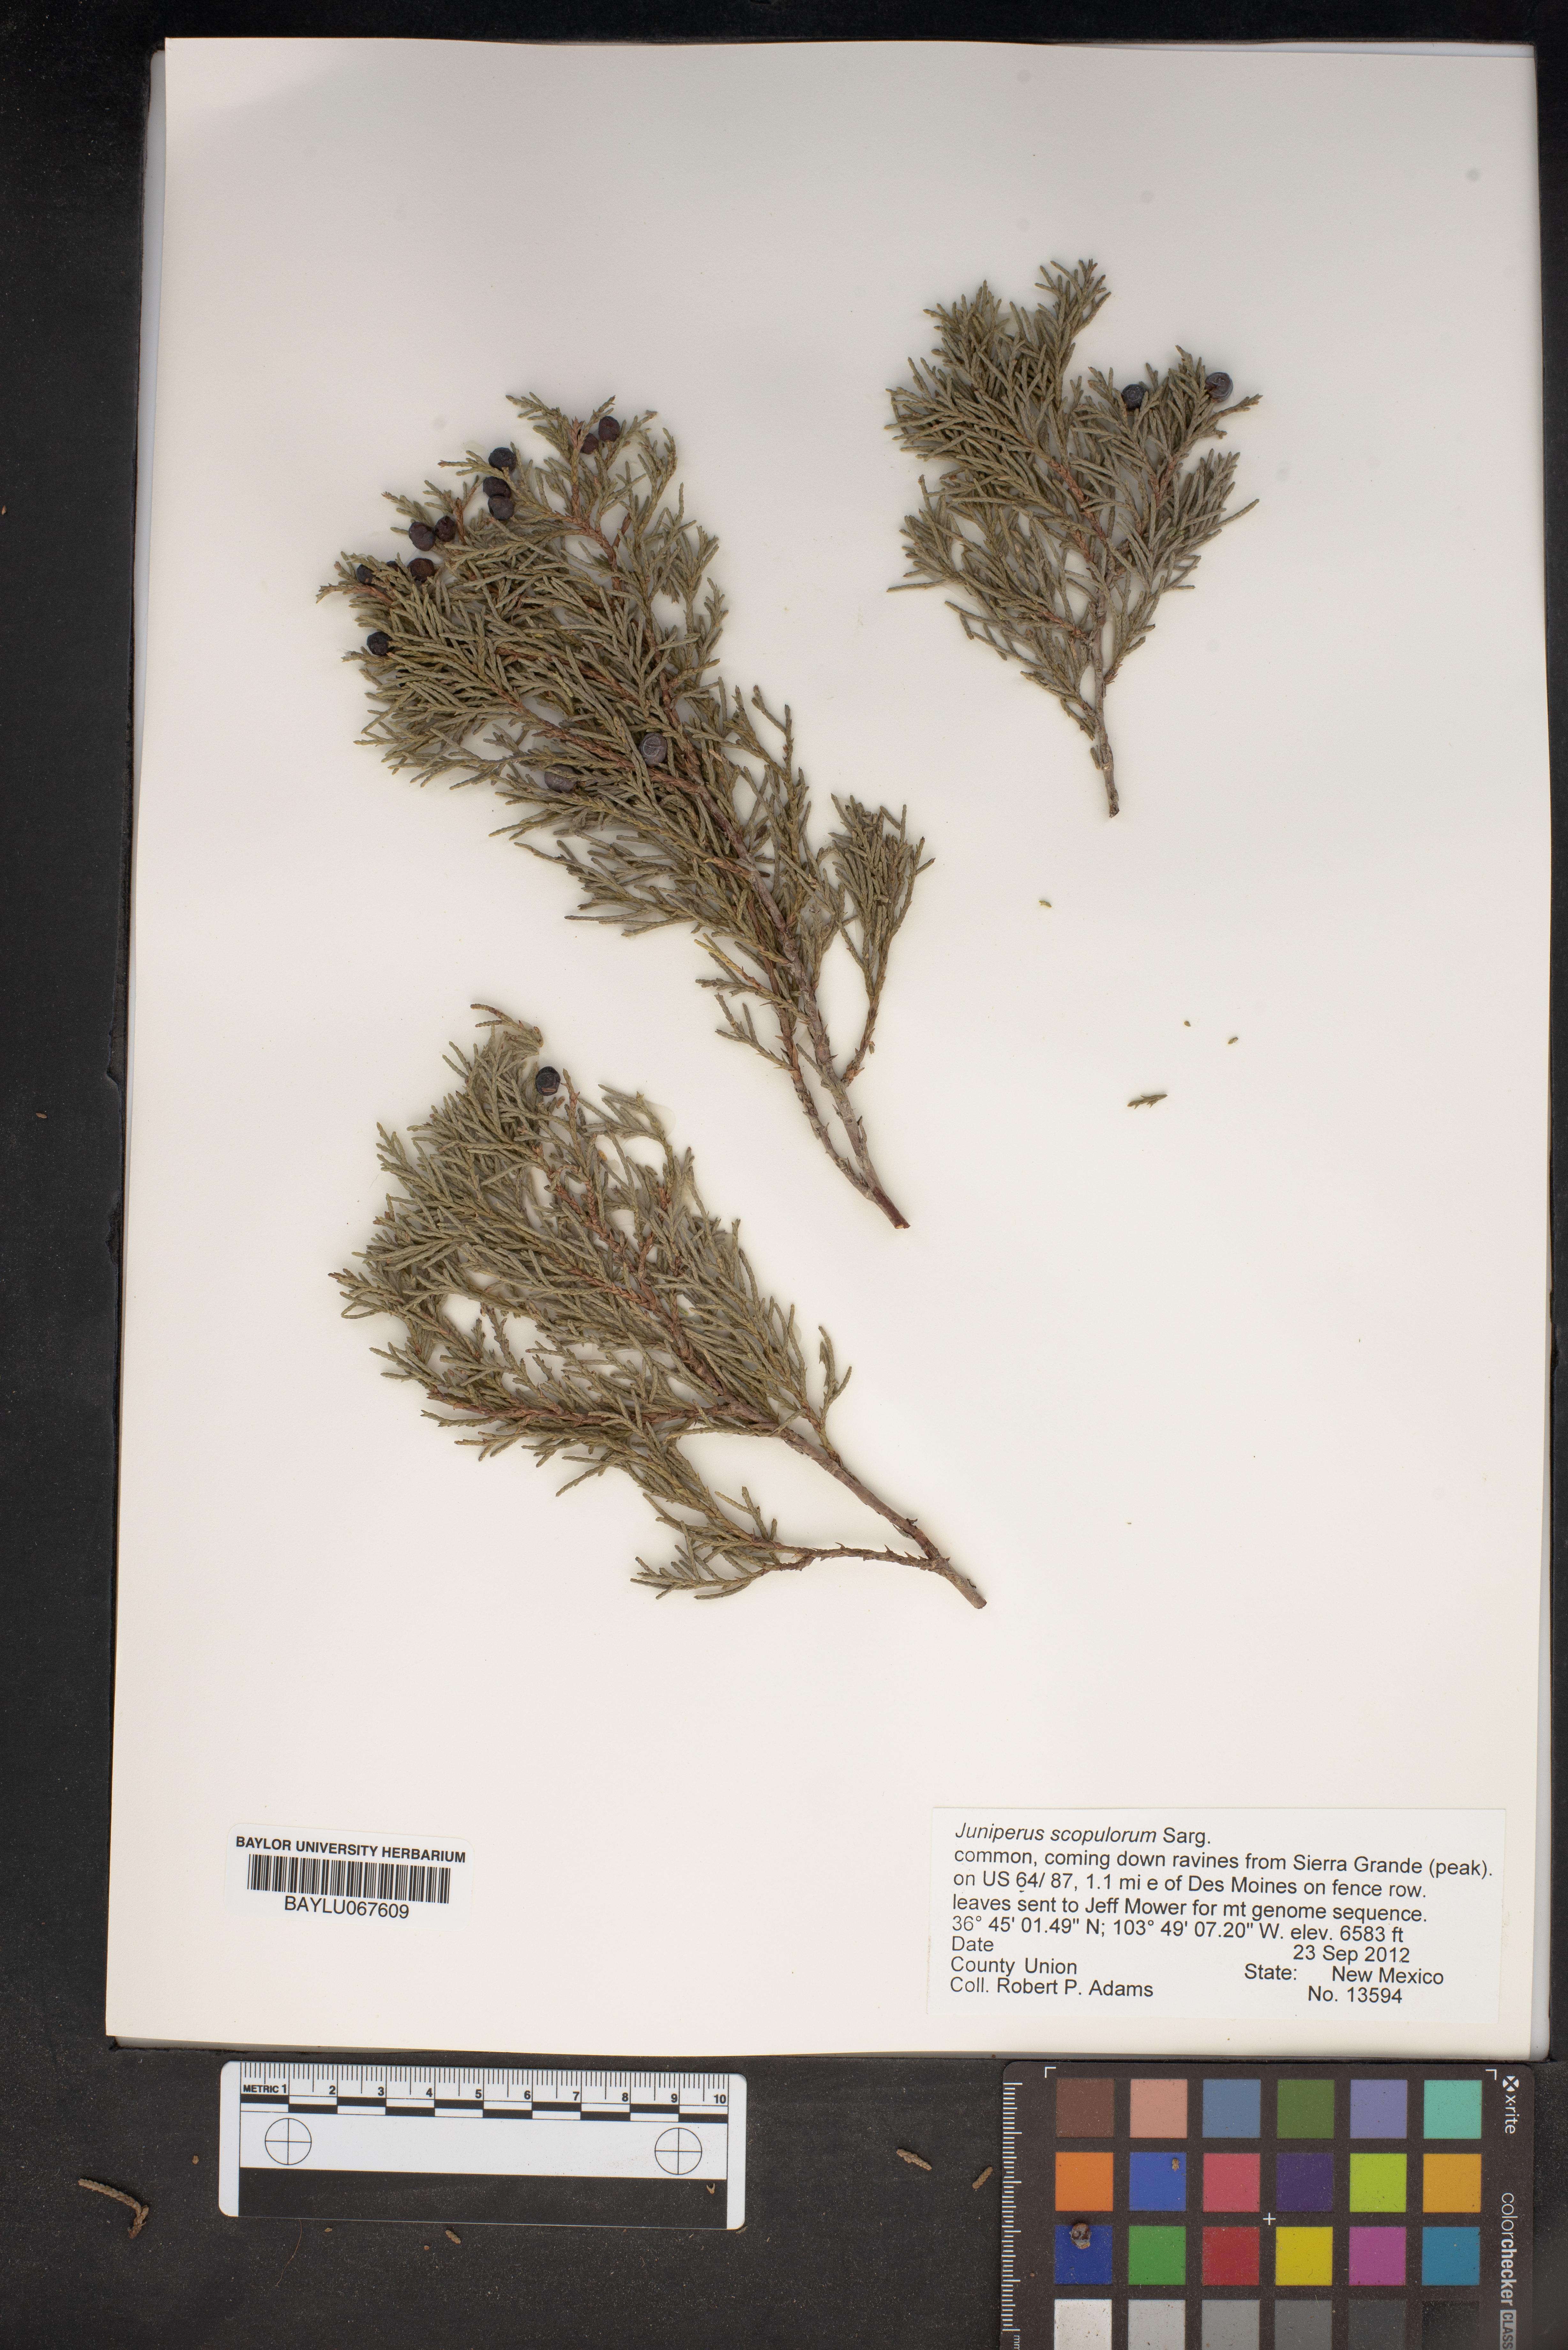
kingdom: Plantae
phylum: Tracheophyta
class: Pinopsida
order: Pinales
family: Cupressaceae
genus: Juniperus
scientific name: Juniperus scopulorum
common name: Rocky mountain juniper
